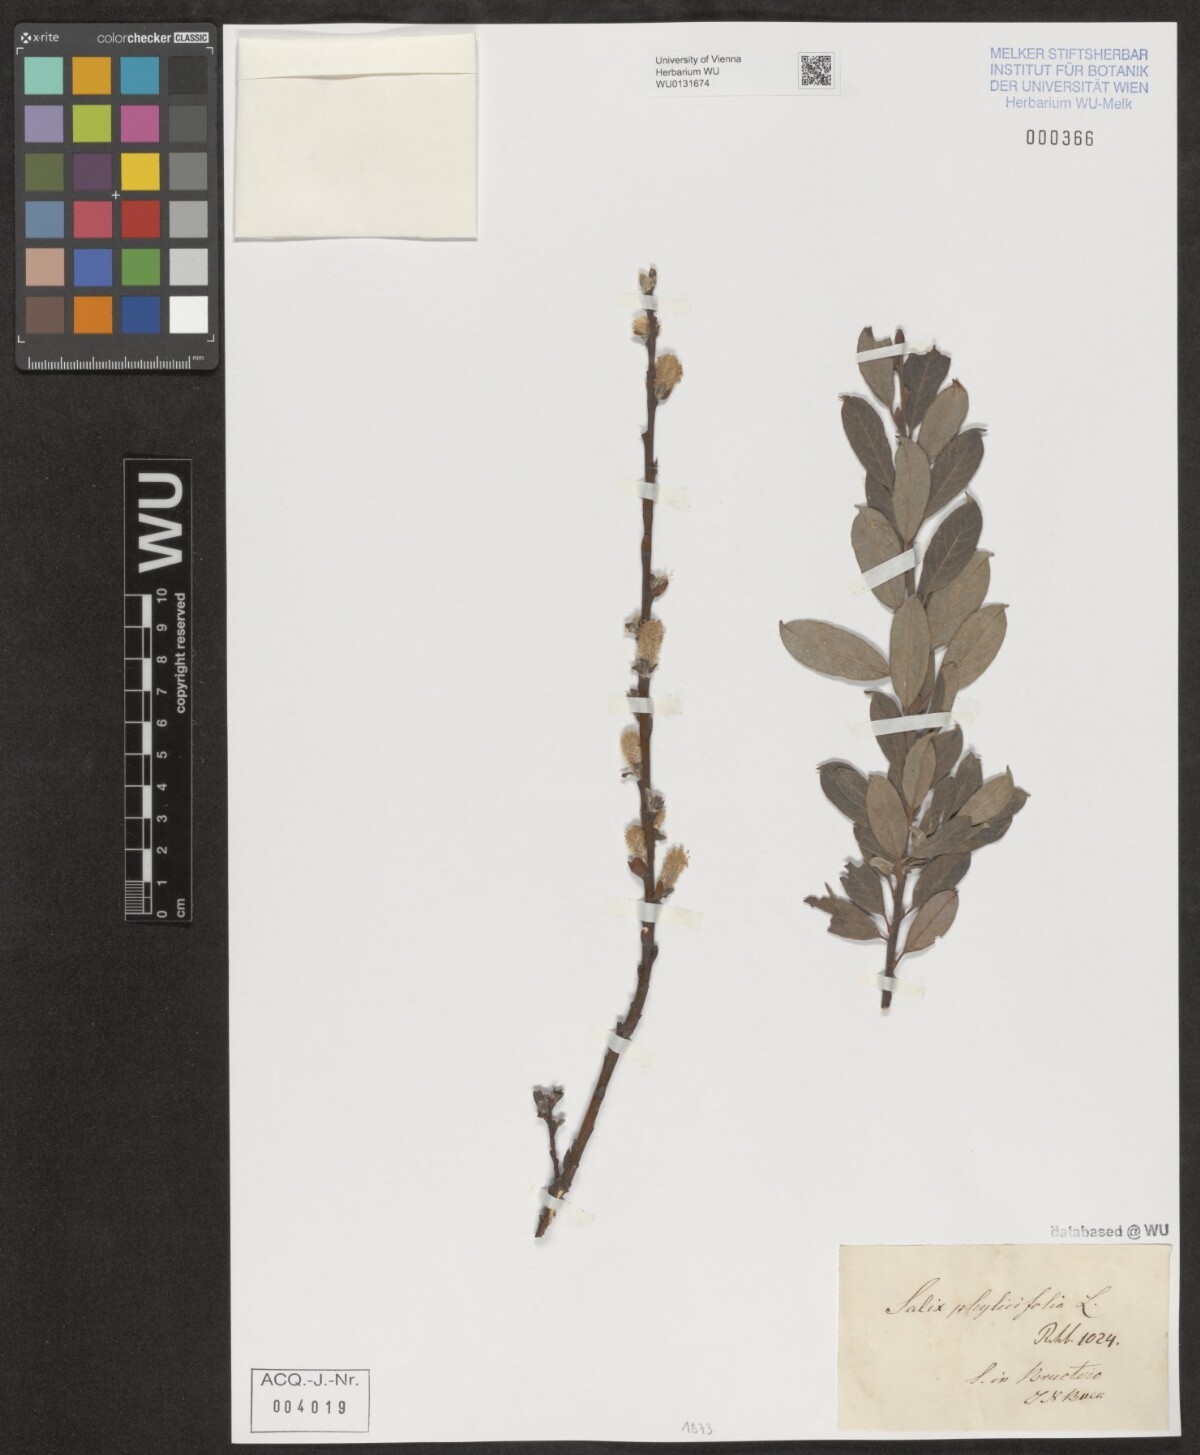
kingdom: Plantae
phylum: Tracheophyta
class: Magnoliopsida
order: Malpighiales
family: Salicaceae
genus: Salix
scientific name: Salix phylicifolia
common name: Tea-leaved willow
